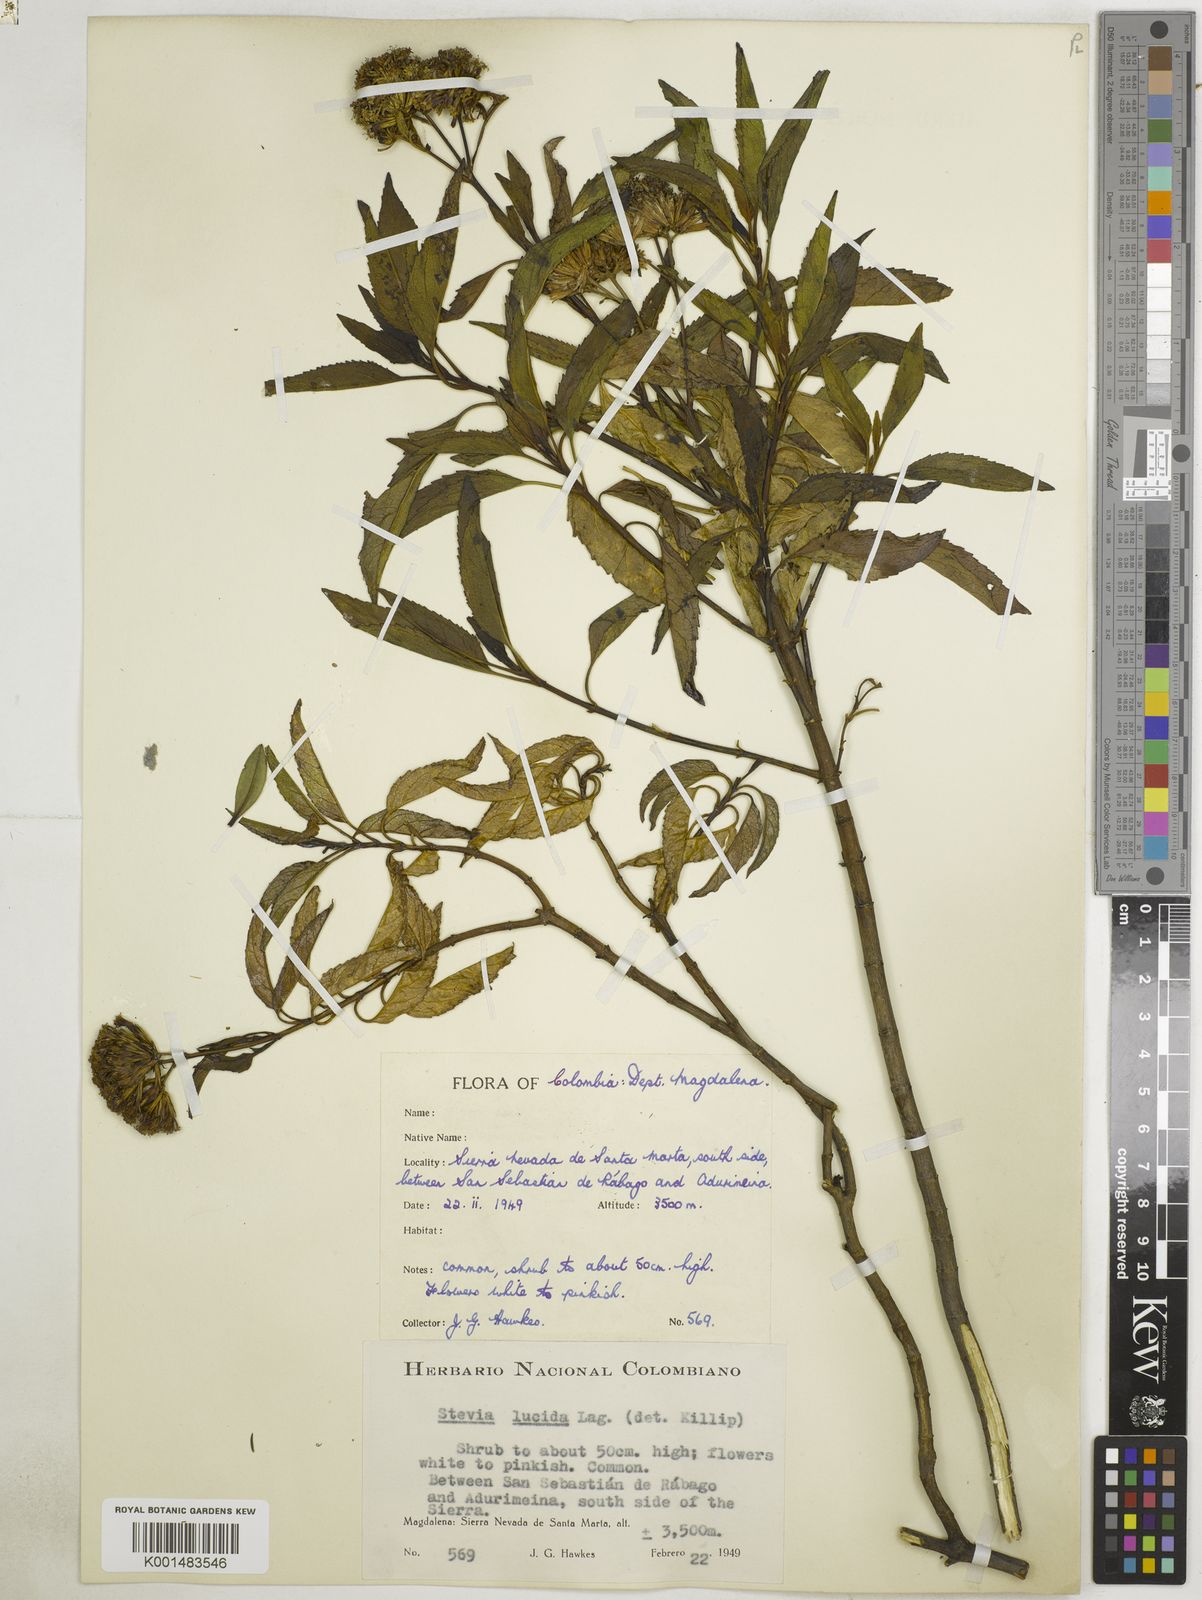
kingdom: Plantae
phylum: Tracheophyta
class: Magnoliopsida
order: Asterales
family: Asteraceae
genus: Stevia
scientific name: Stevia lucida
